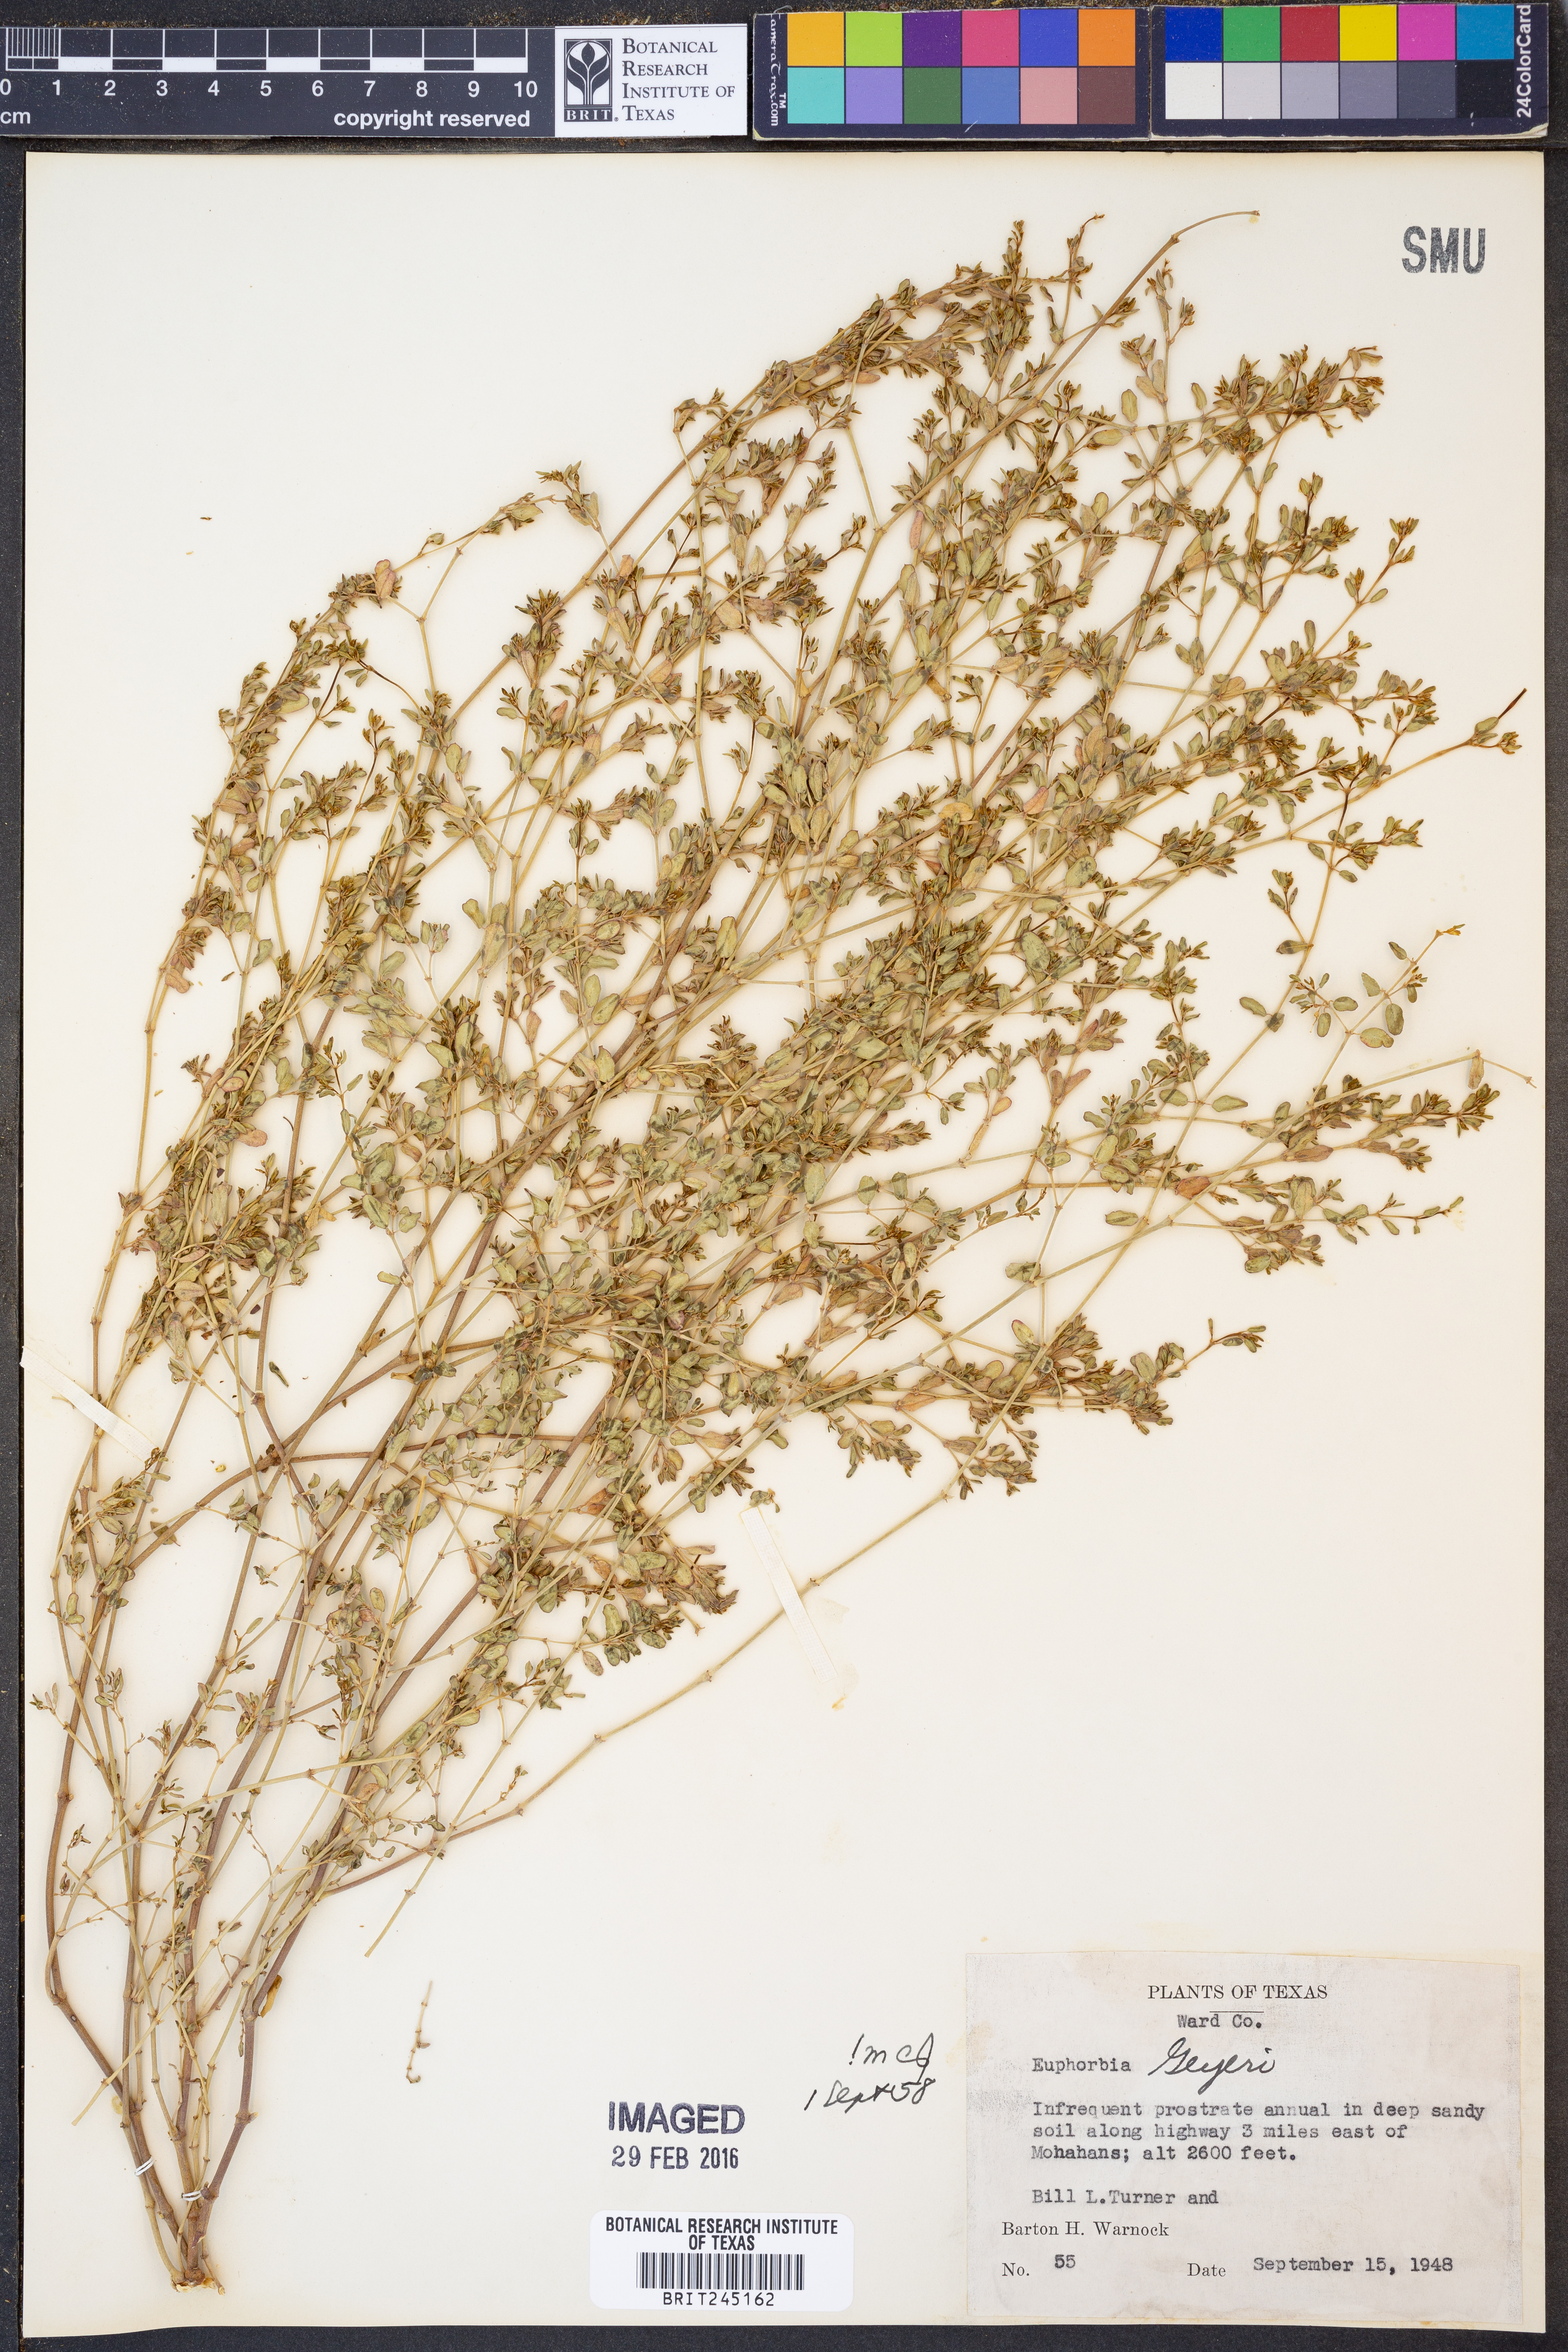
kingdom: Plantae
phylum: Tracheophyta
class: Magnoliopsida
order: Malpighiales
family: Euphorbiaceae
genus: Euphorbia
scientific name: Euphorbia geyeri
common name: Geyer's spurge
